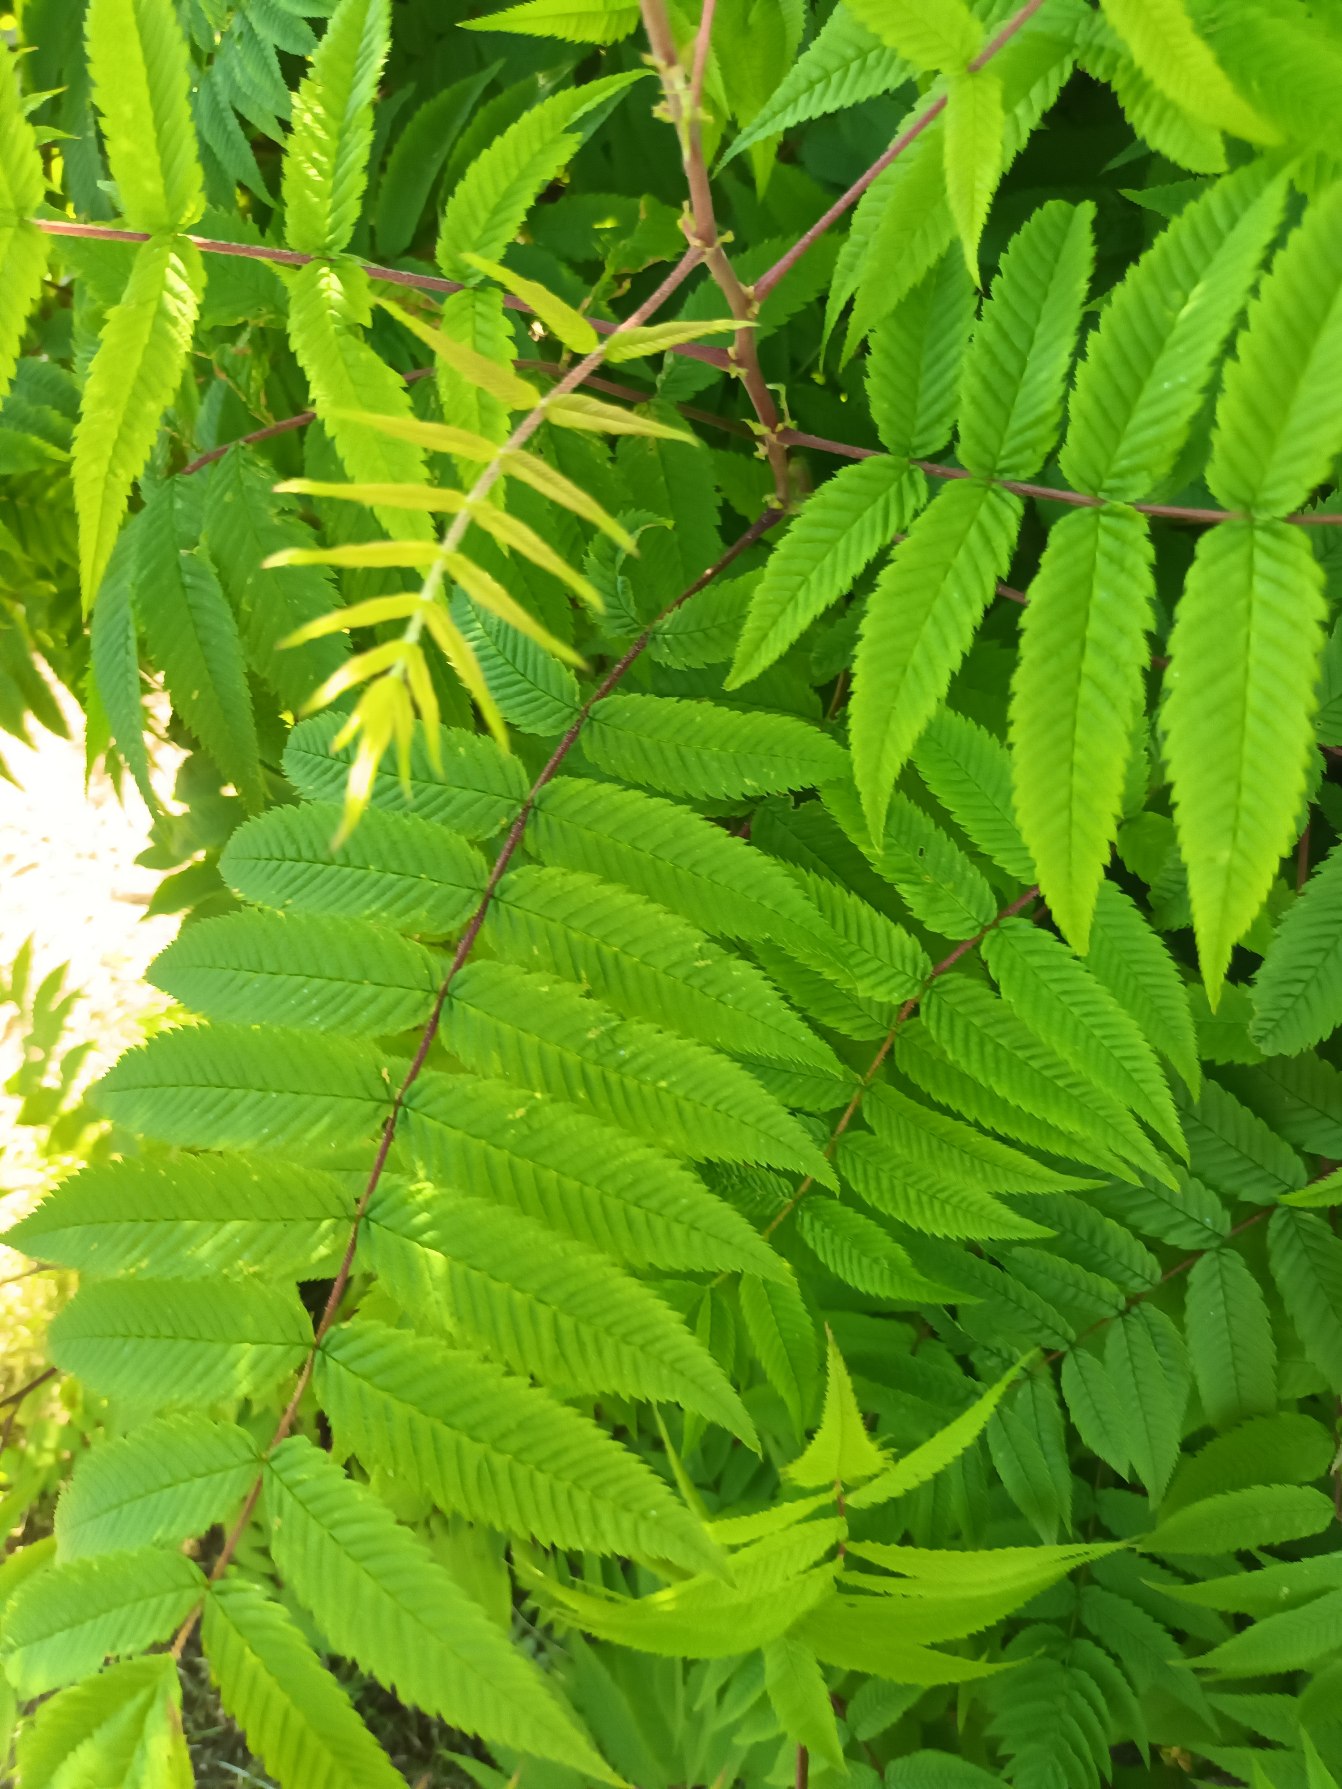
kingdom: Plantae
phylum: Tracheophyta
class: Magnoliopsida
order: Rosales
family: Rosaceae
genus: Sorbaria
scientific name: Sorbaria sorbifolia
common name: Tusindtop
